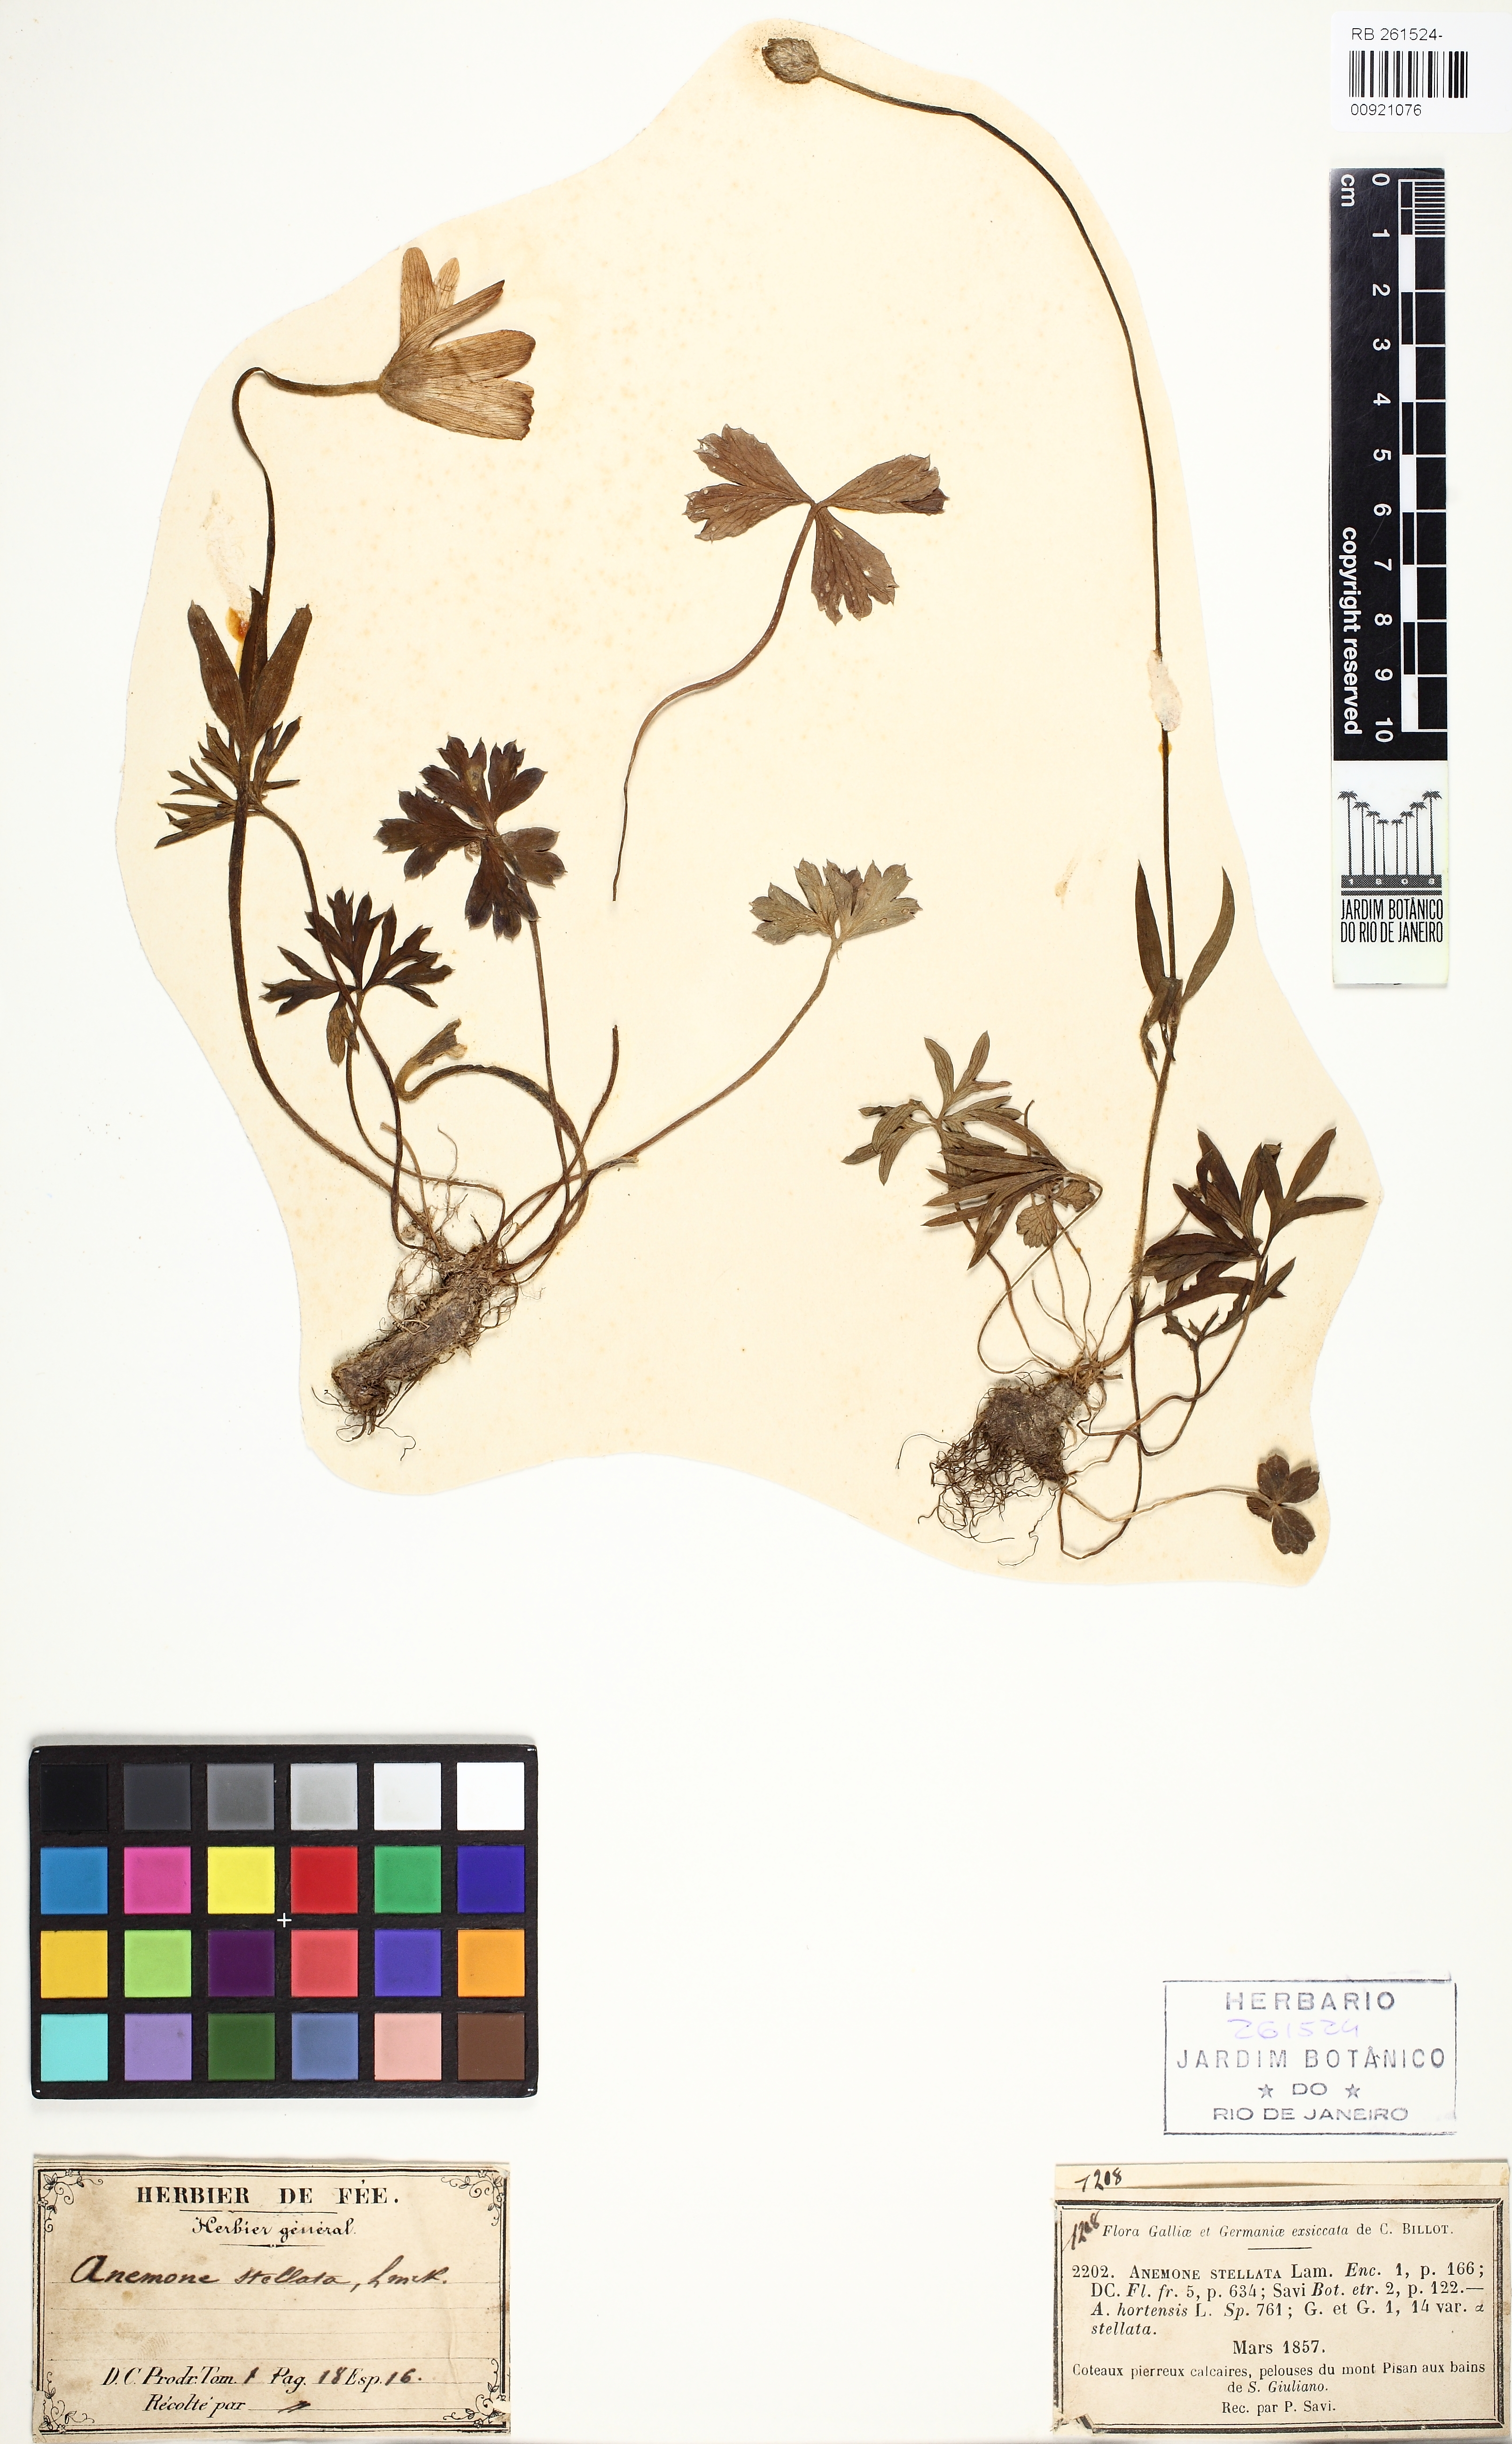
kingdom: Plantae
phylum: Tracheophyta
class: Magnoliopsida
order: Ranunculales
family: Ranunculaceae
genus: Anemone
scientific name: Anemone hortensis
